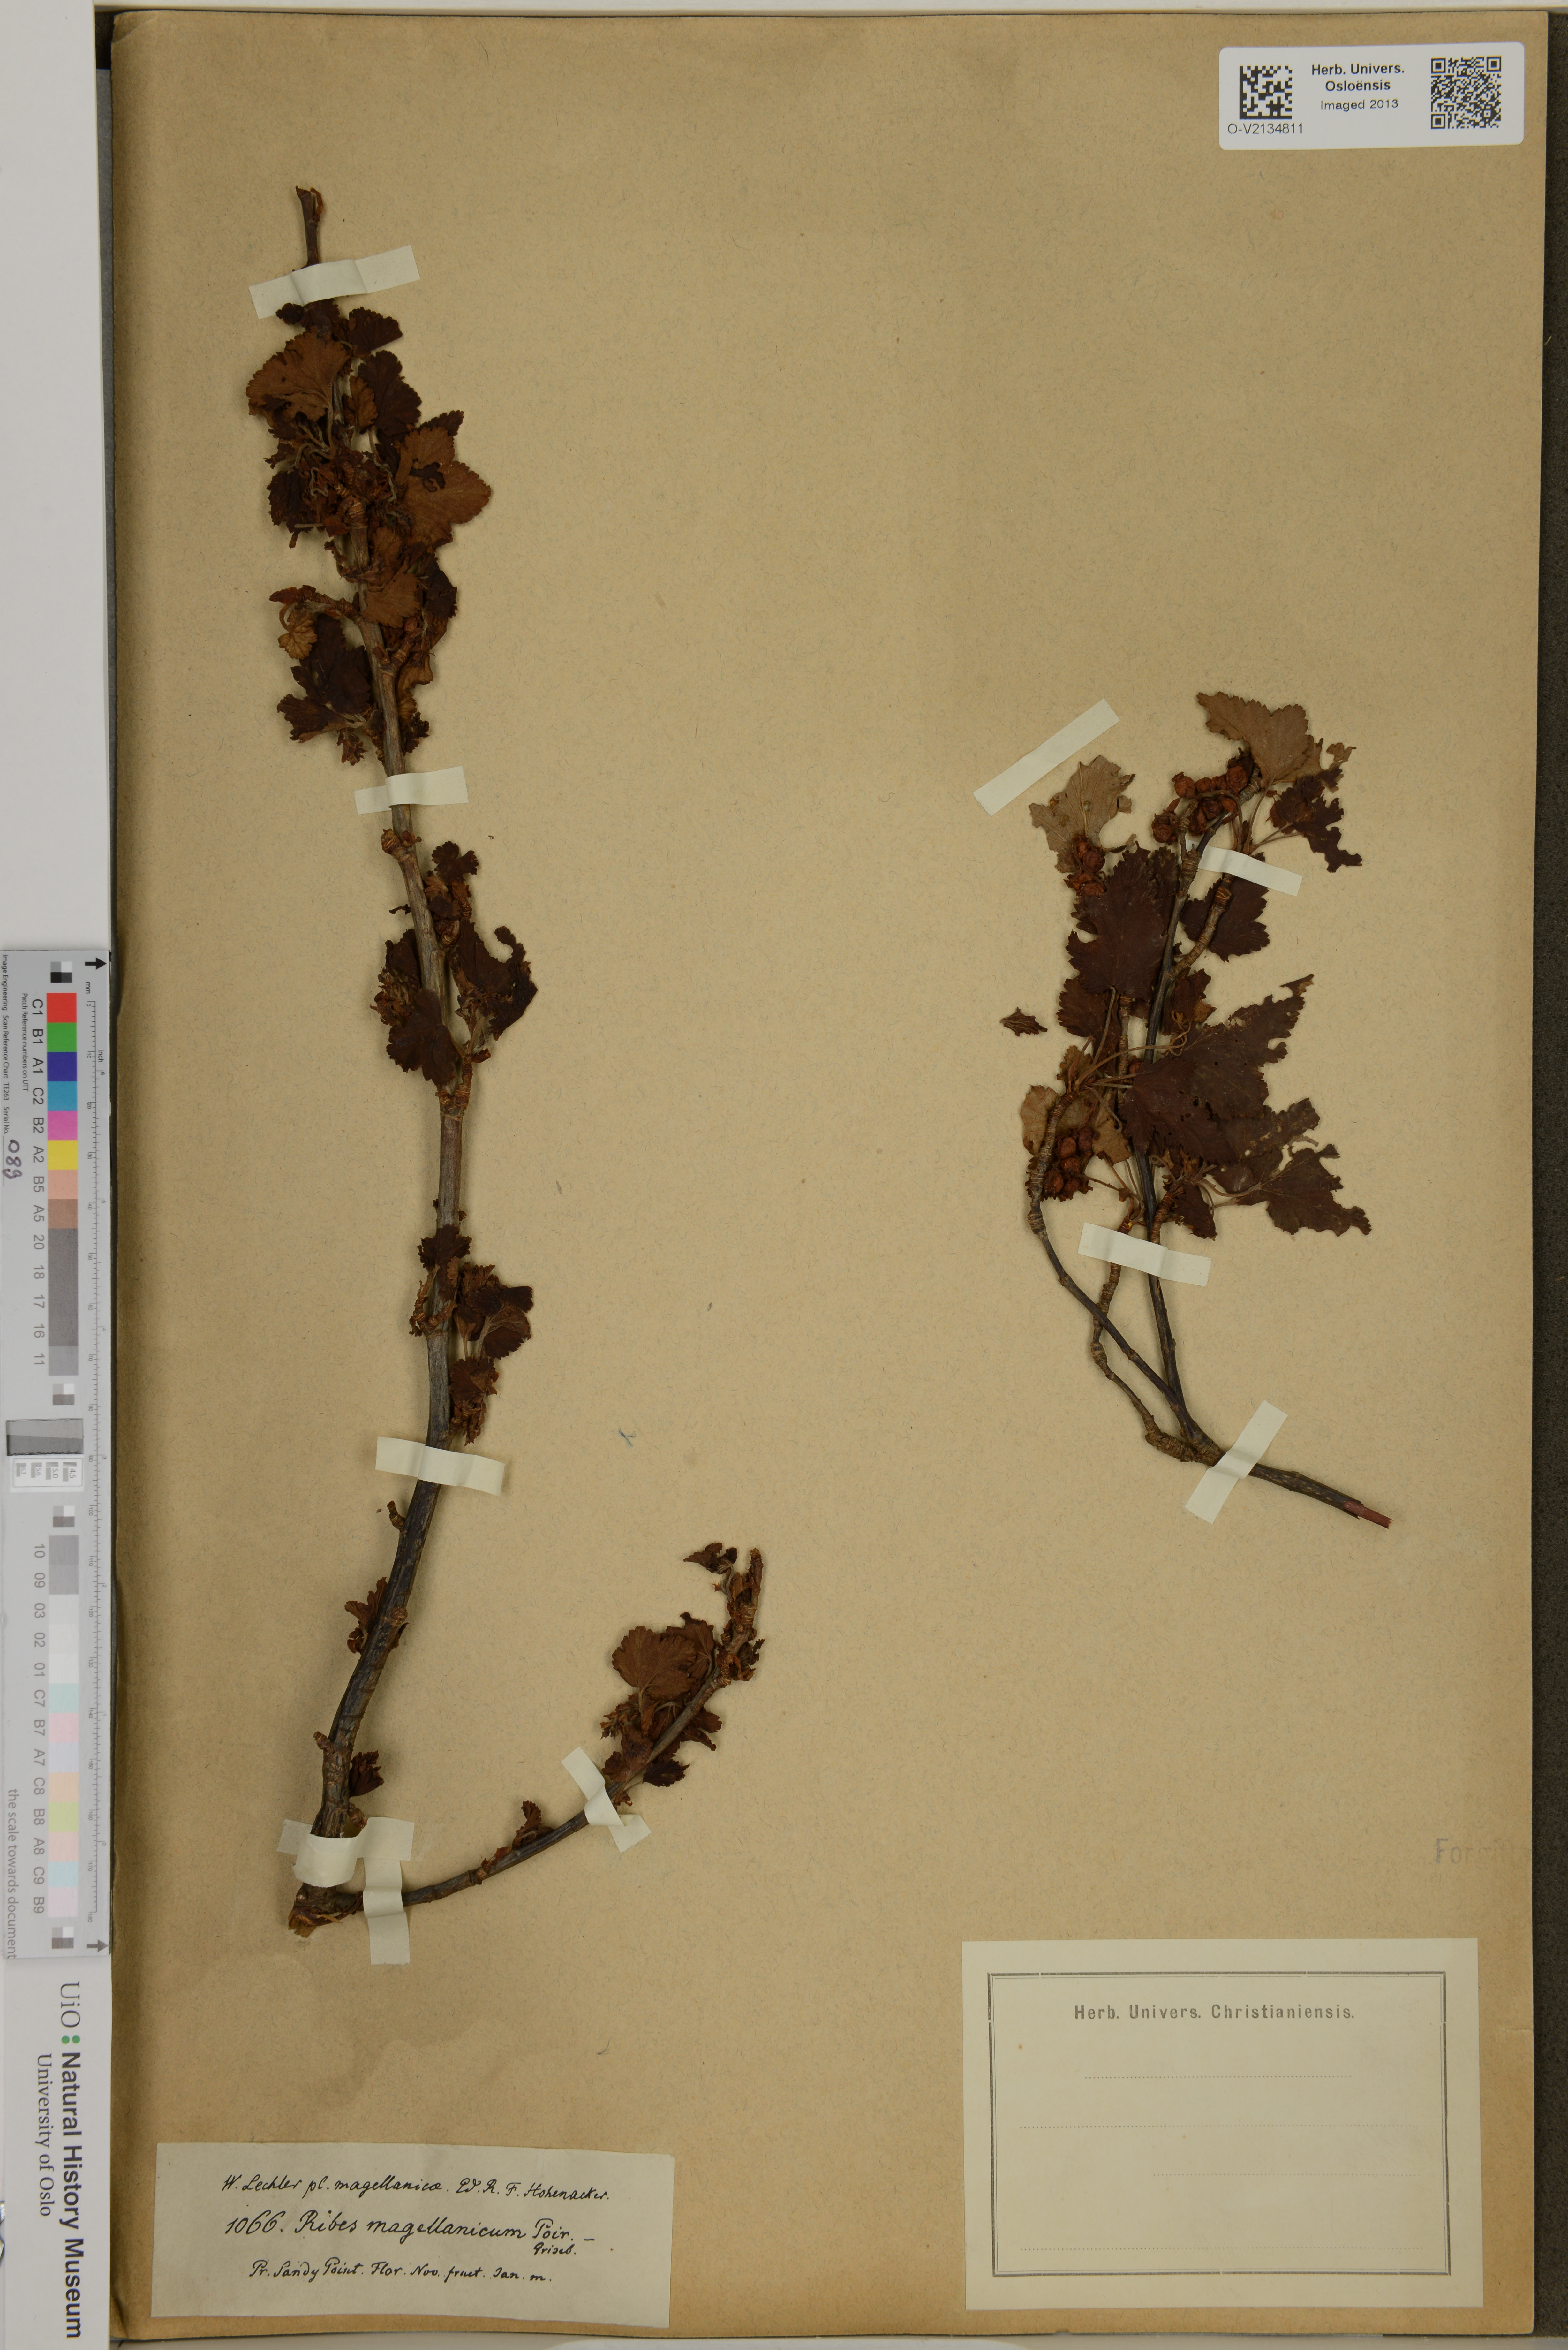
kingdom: Plantae
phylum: Tracheophyta
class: Magnoliopsida
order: Saxifragales
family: Grossulariaceae
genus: Ribes
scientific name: Ribes magellanicum
